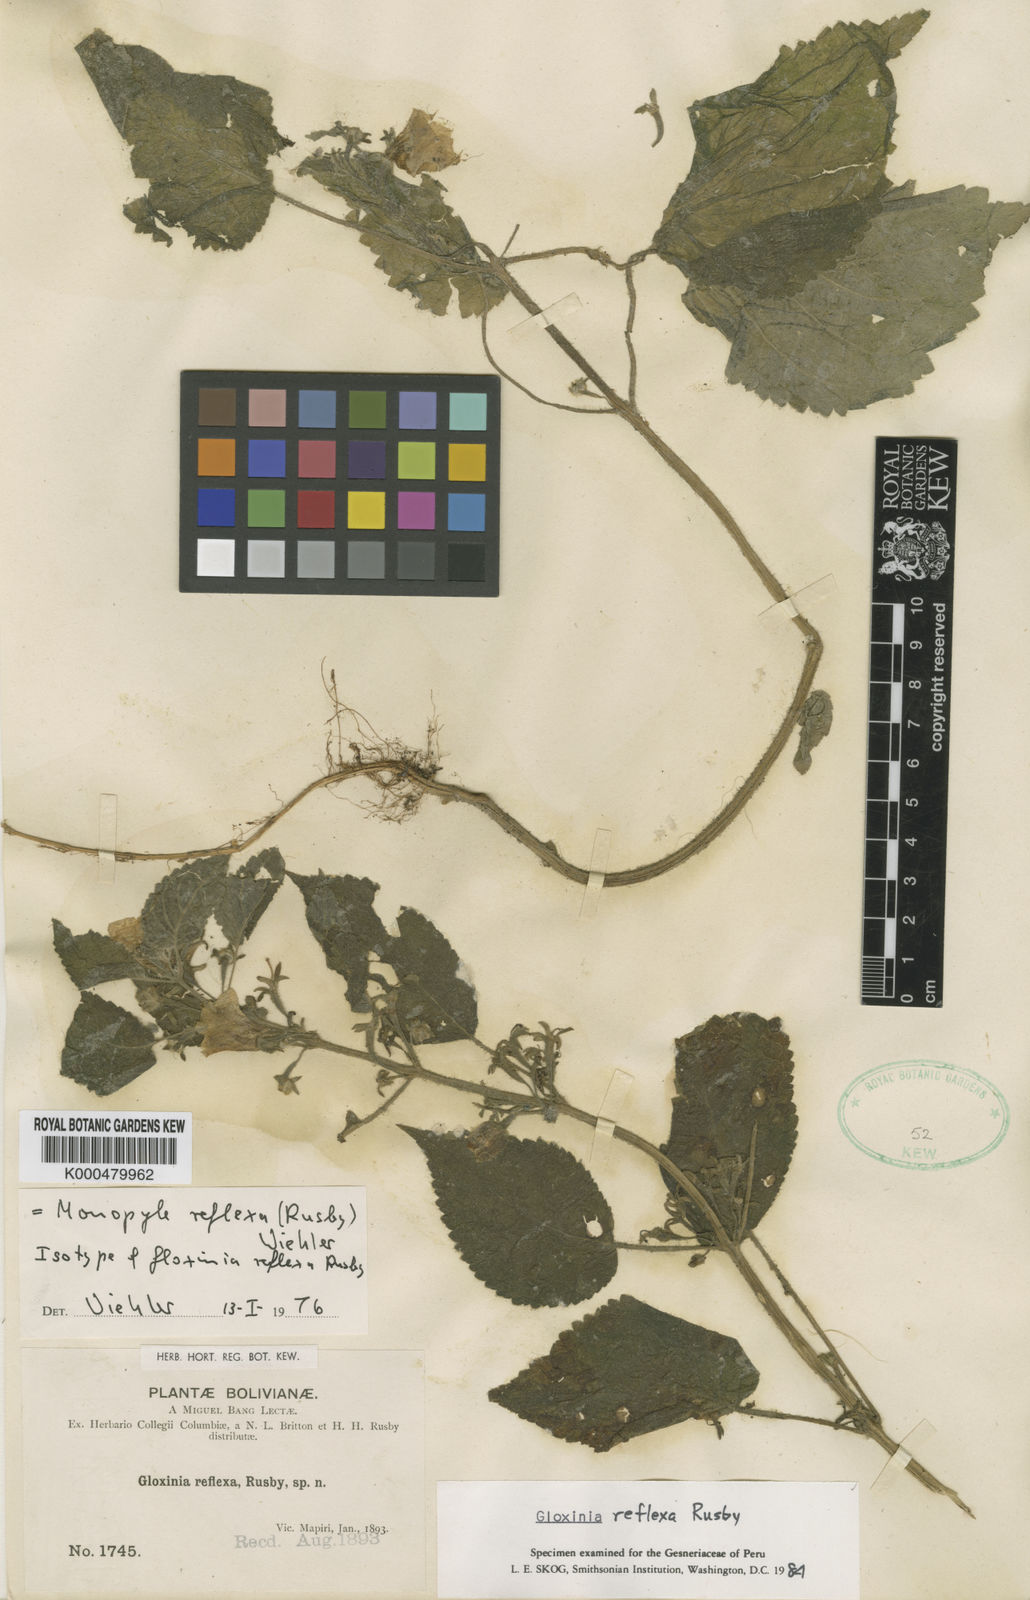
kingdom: Plantae
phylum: Tracheophyta
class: Magnoliopsida
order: Lamiales
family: Gesneriaceae
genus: Monopyle
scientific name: Monopyle reflexa
